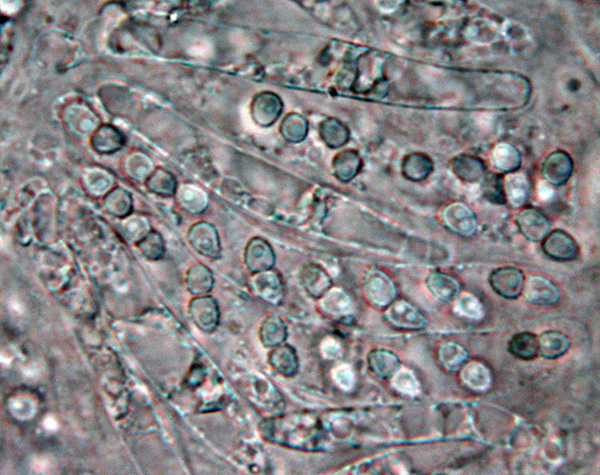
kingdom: Fungi
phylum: Ascomycota
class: Sordariomycetes
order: Hypocreales
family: Niessliaceae
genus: Trichosphaerella
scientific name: Trichosphaerella decipiens
